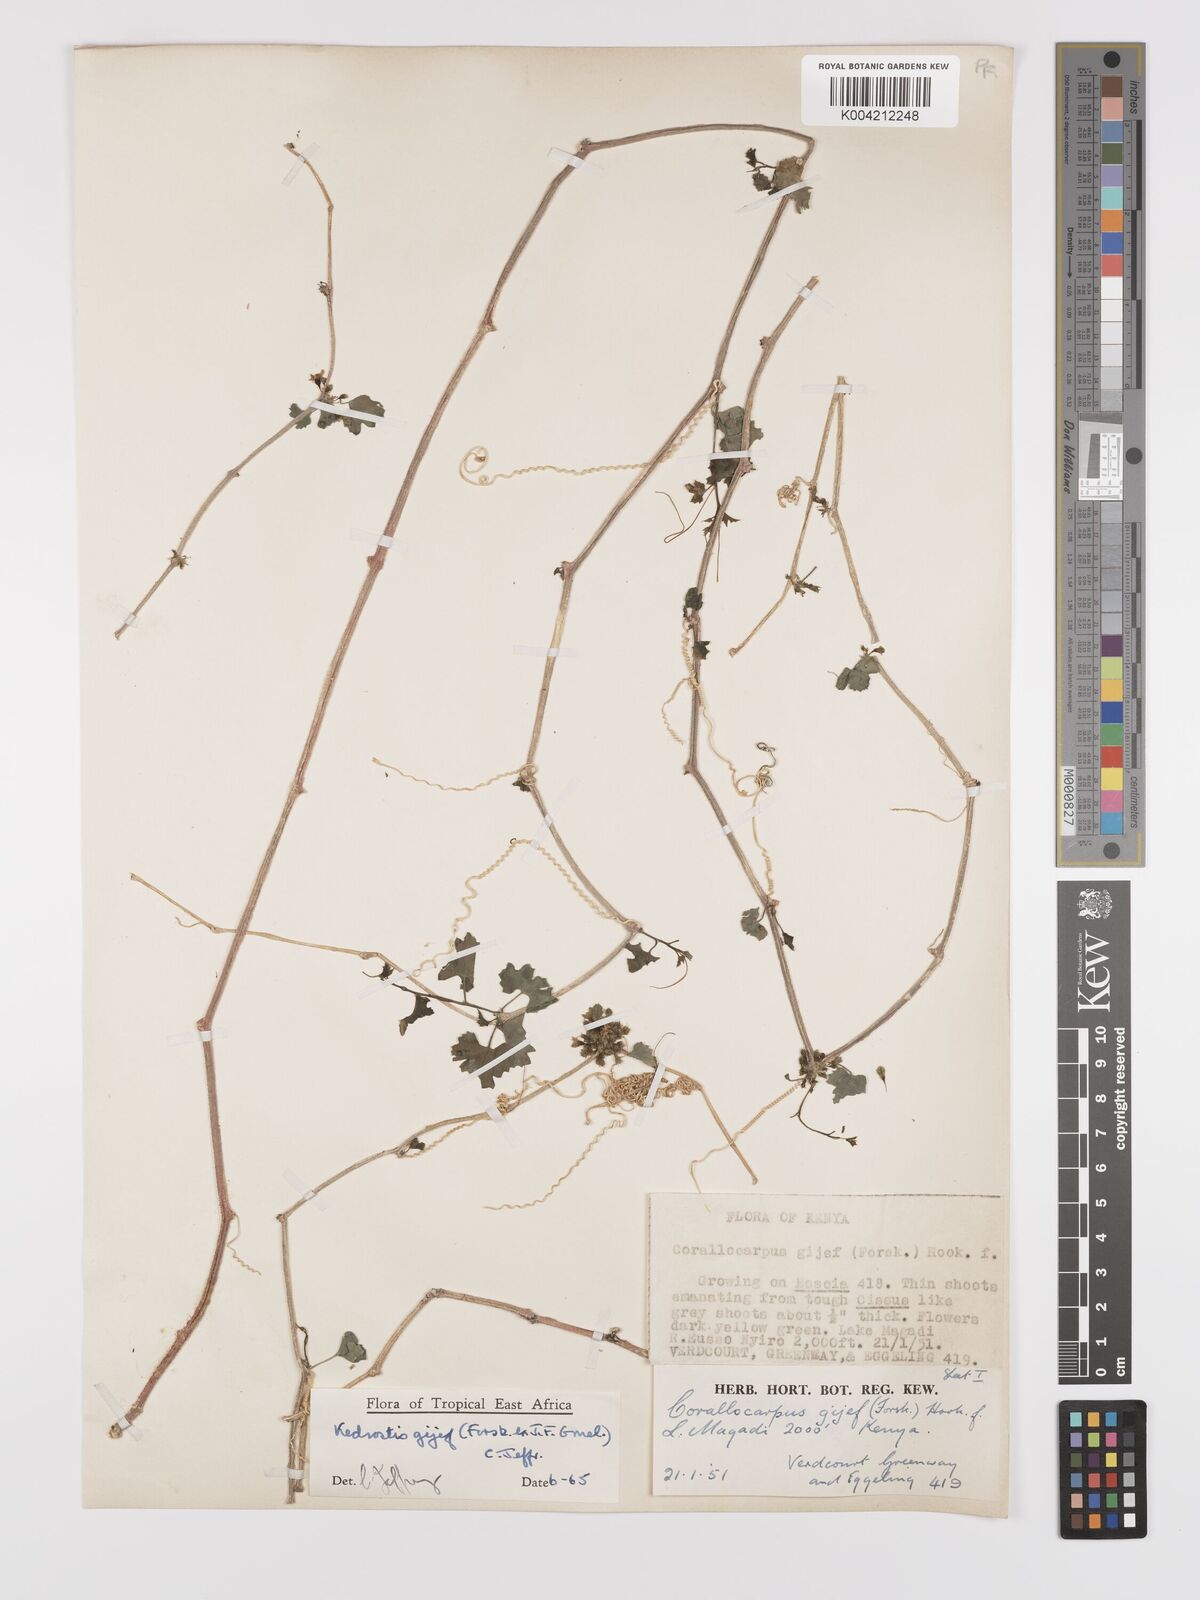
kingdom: Plantae
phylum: Tracheophyta
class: Magnoliopsida
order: Cucurbitales
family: Cucurbitaceae
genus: Kedrostis
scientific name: Kedrostis gijef
